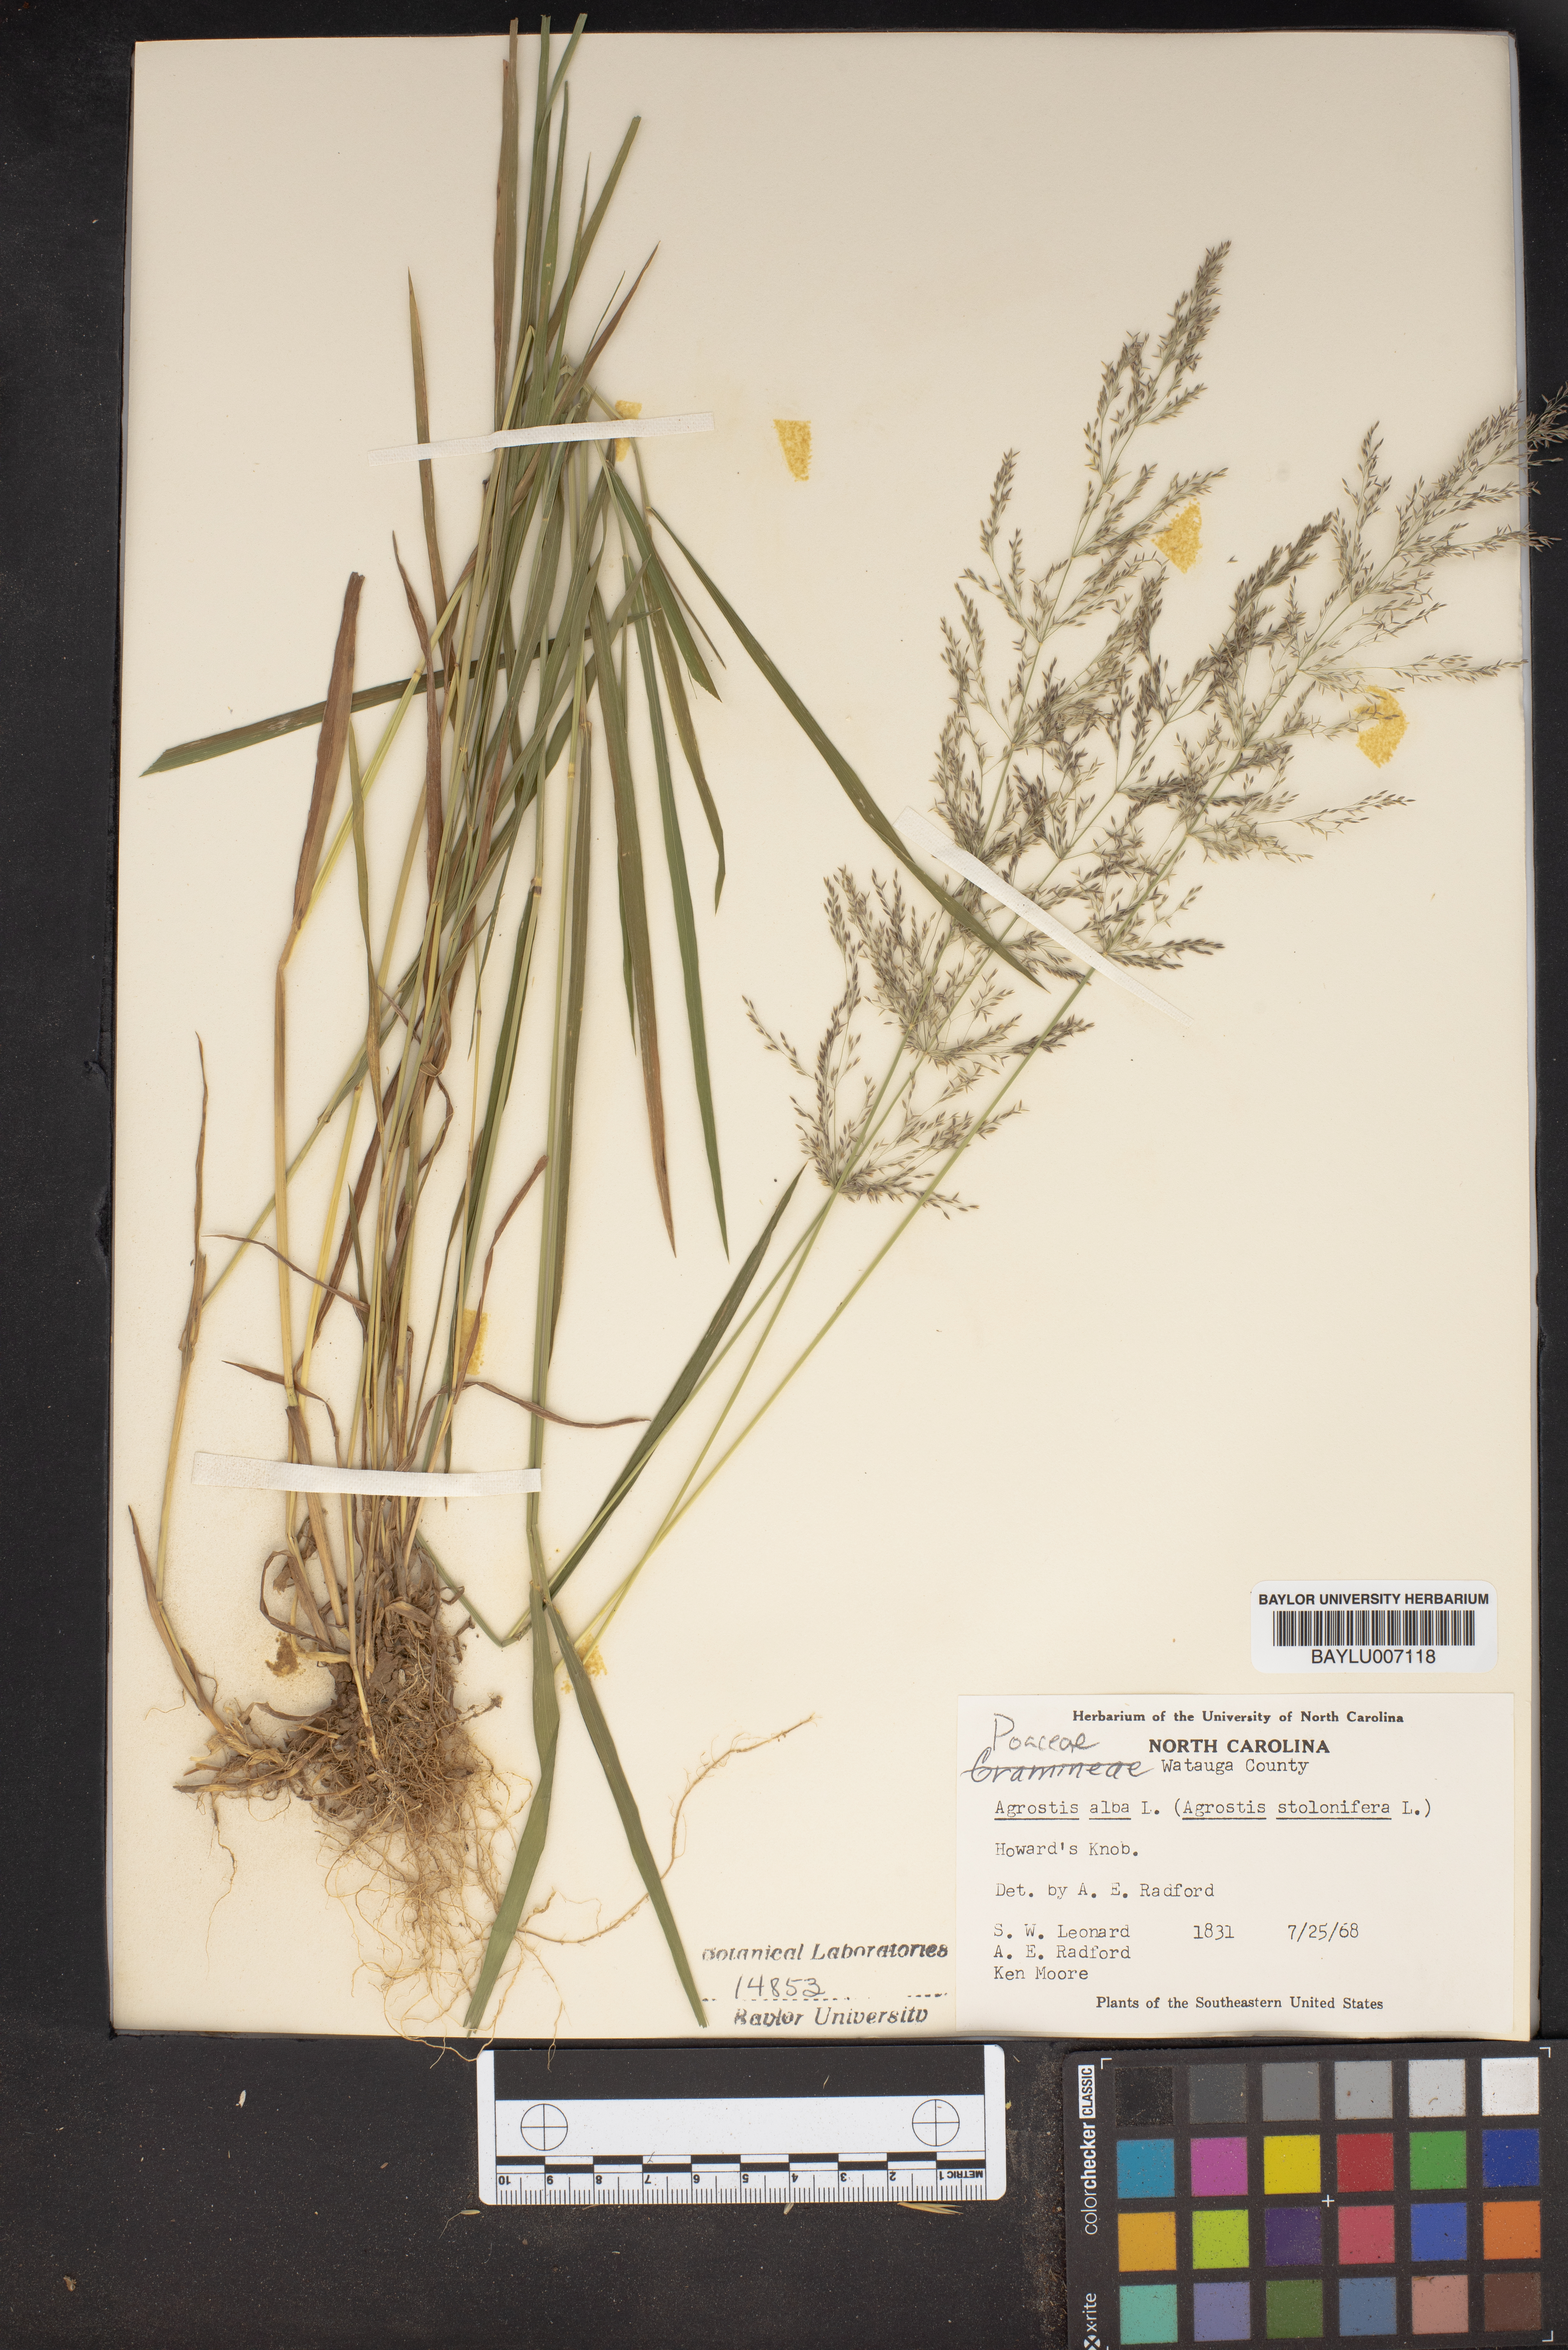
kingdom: Plantae
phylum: Tracheophyta
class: Liliopsida
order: Poales
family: Poaceae
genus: Agrostis
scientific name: Agrostis alba
